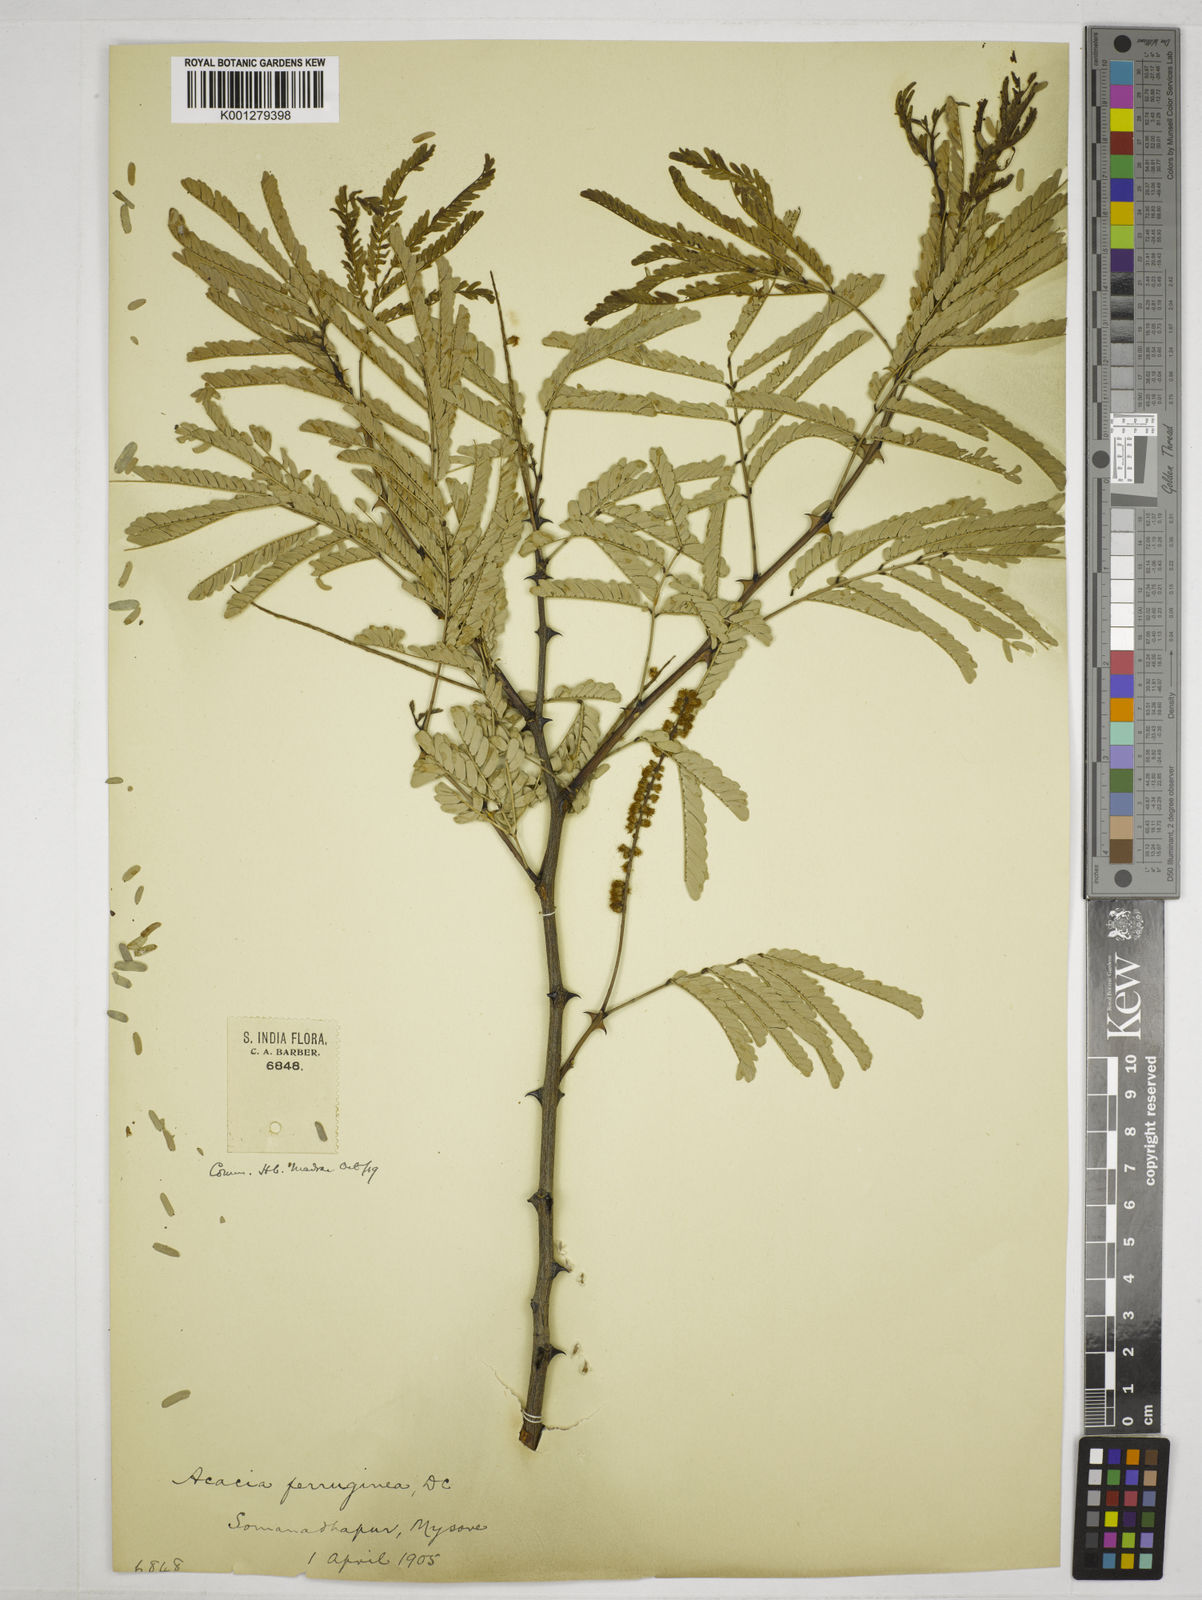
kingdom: Plantae
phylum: Tracheophyta
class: Magnoliopsida
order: Fabales
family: Fabaceae
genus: Senegalia
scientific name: Senegalia ferruginea
